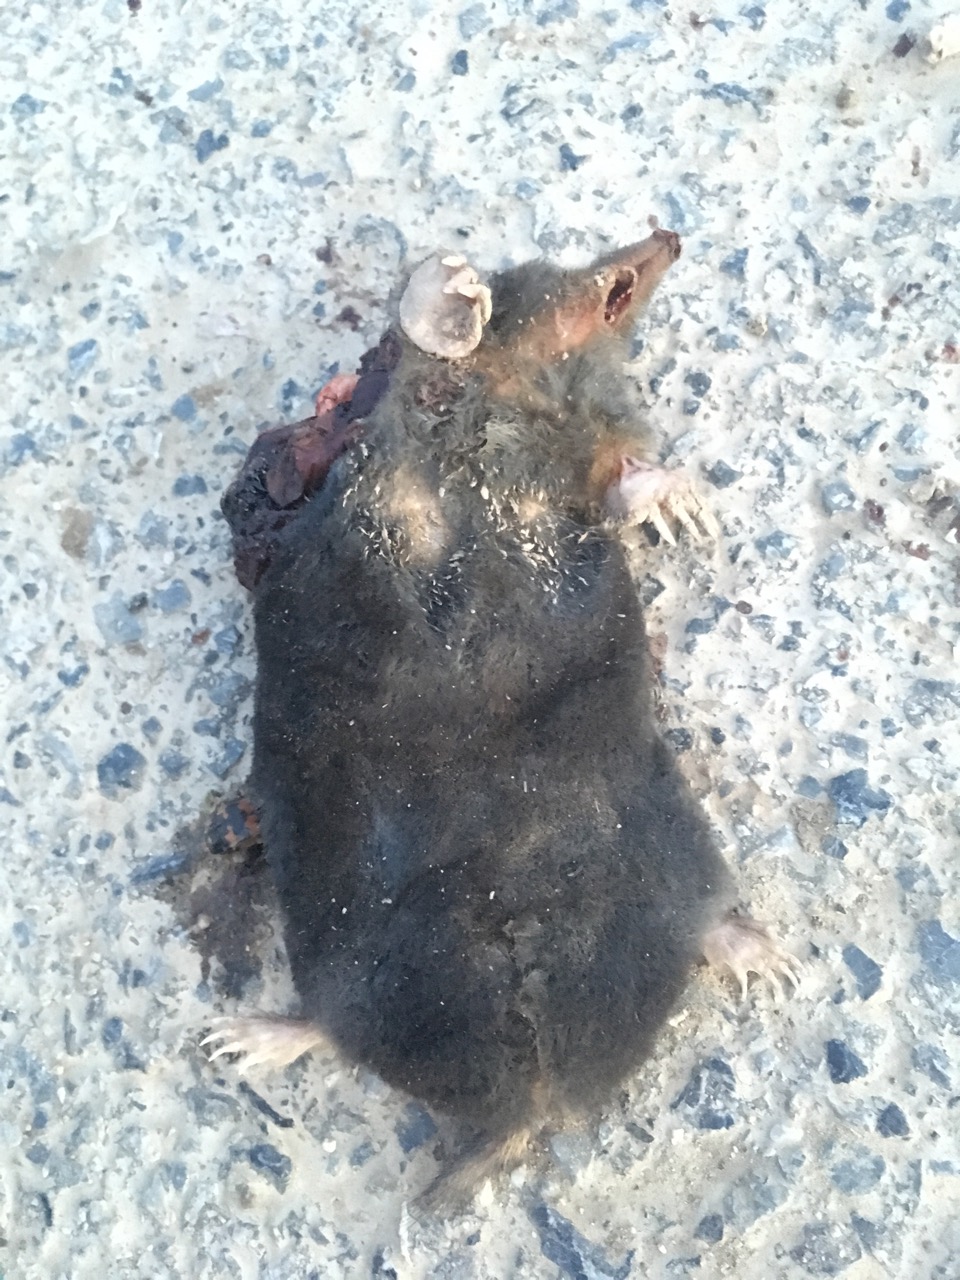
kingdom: Animalia
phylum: Chordata
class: Mammalia
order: Soricomorpha
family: Talpidae
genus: Talpa
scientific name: Talpa europaea
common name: European mole
